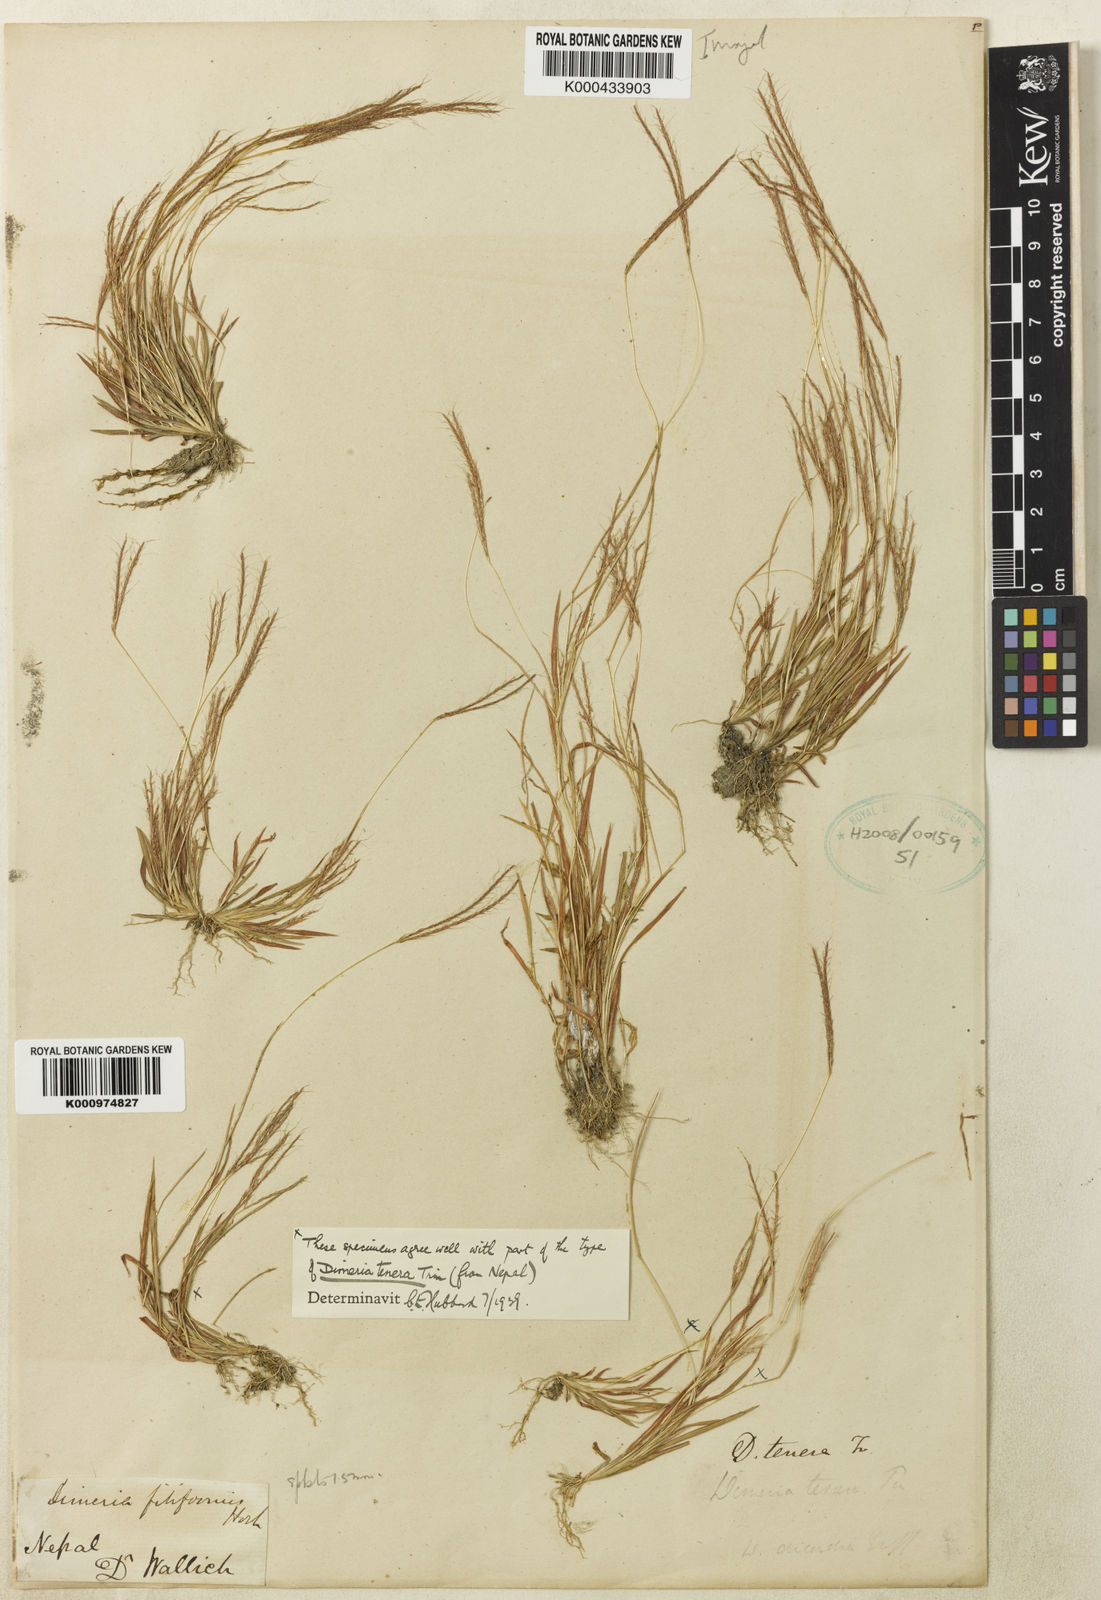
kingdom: Plantae
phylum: Tracheophyta
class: Liliopsida
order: Poales
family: Poaceae
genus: Dimeria
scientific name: Dimeria ornithopoda
